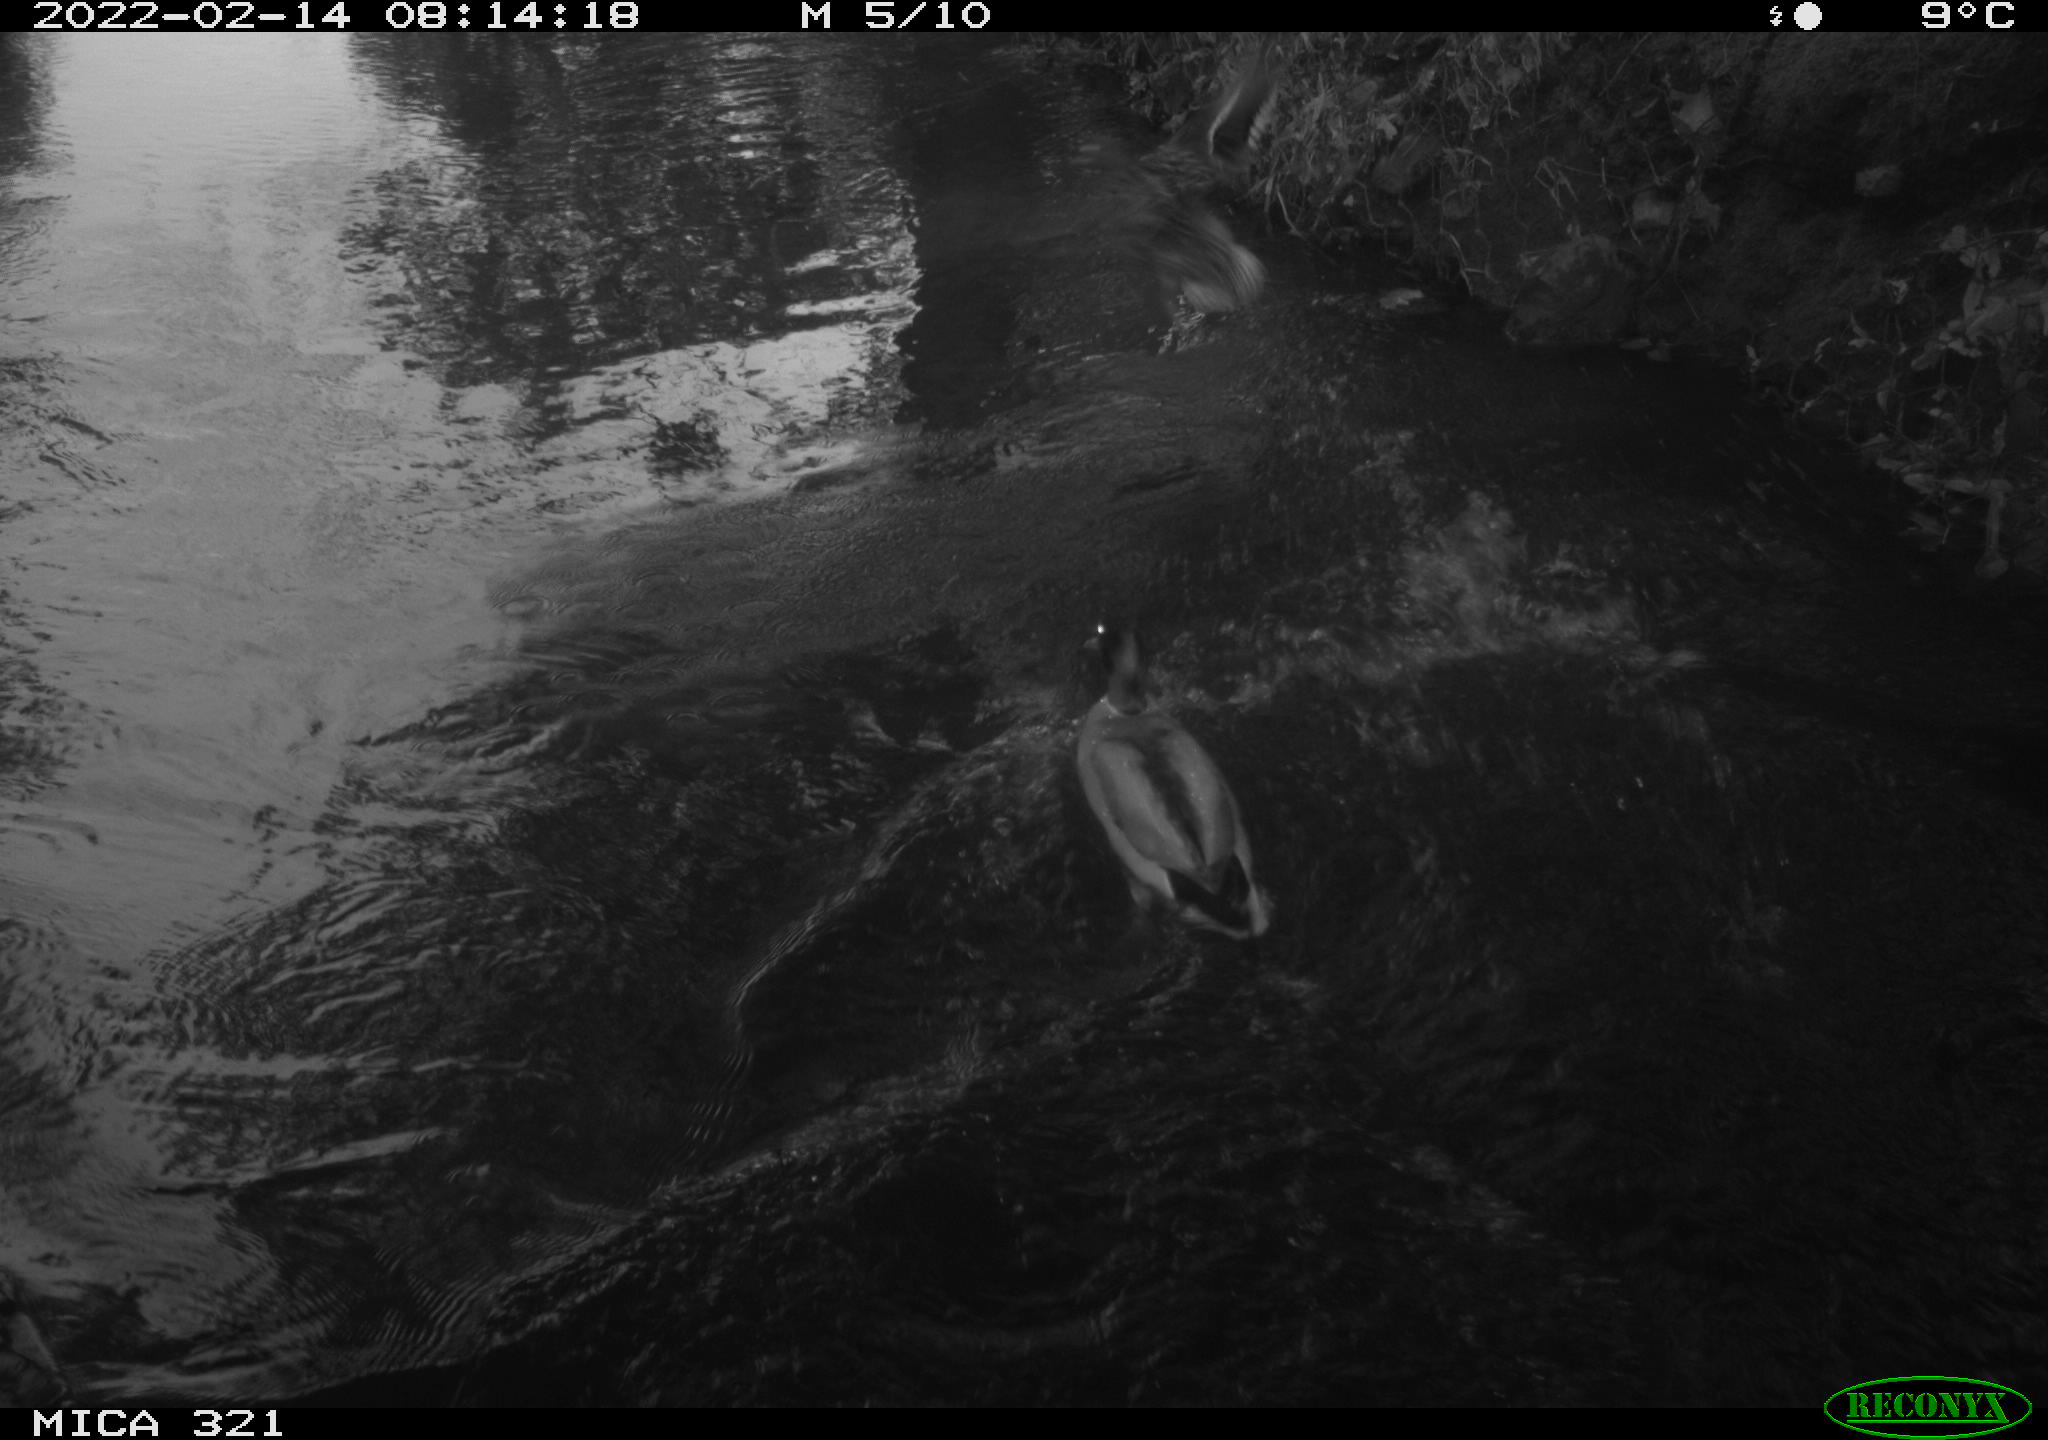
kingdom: Animalia
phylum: Chordata
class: Aves
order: Anseriformes
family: Anatidae
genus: Anas
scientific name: Anas platyrhynchos
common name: Mallard
